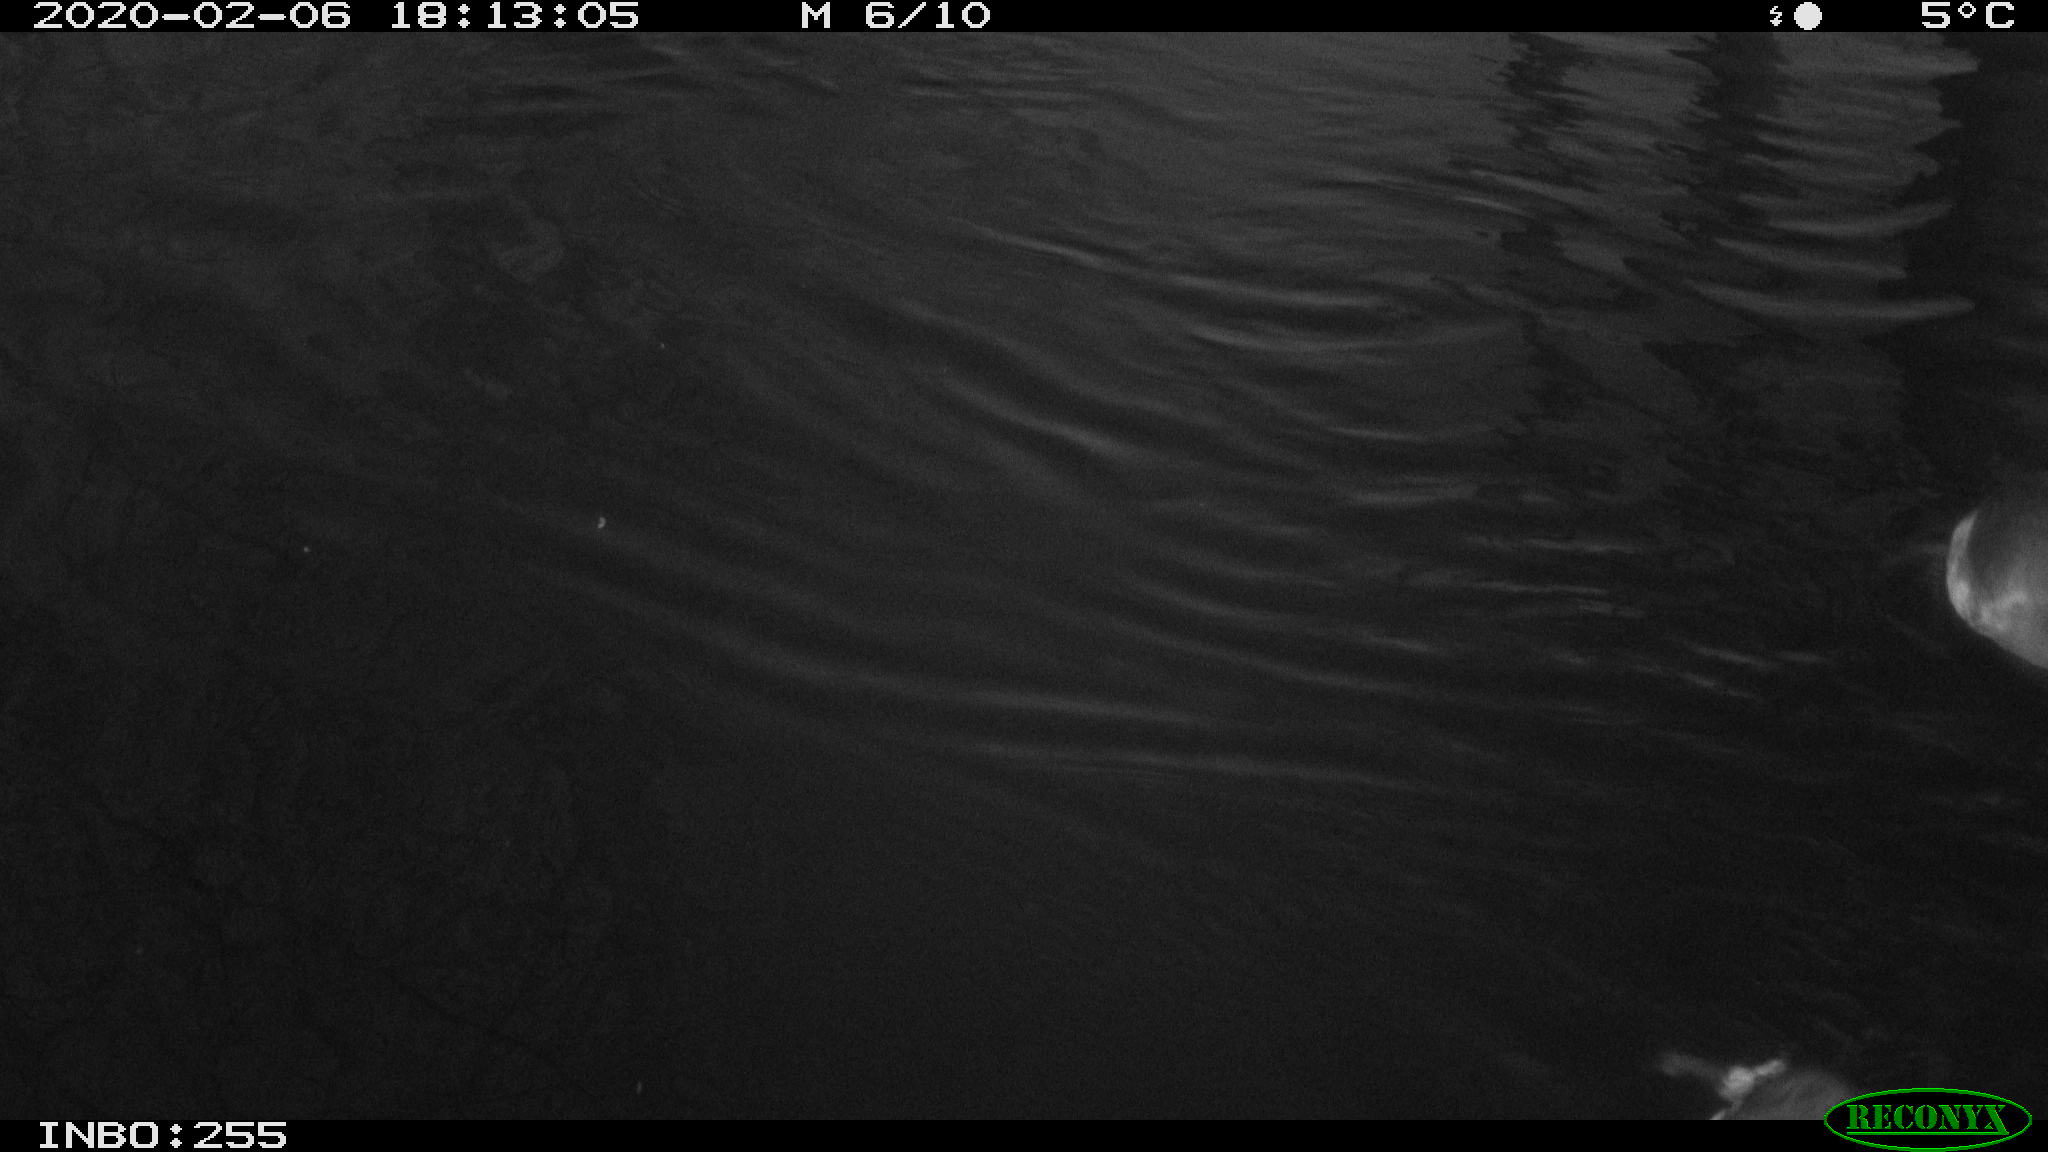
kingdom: Animalia
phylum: Chordata
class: Aves
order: Gruiformes
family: Rallidae
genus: Fulica
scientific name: Fulica atra
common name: Eurasian coot
